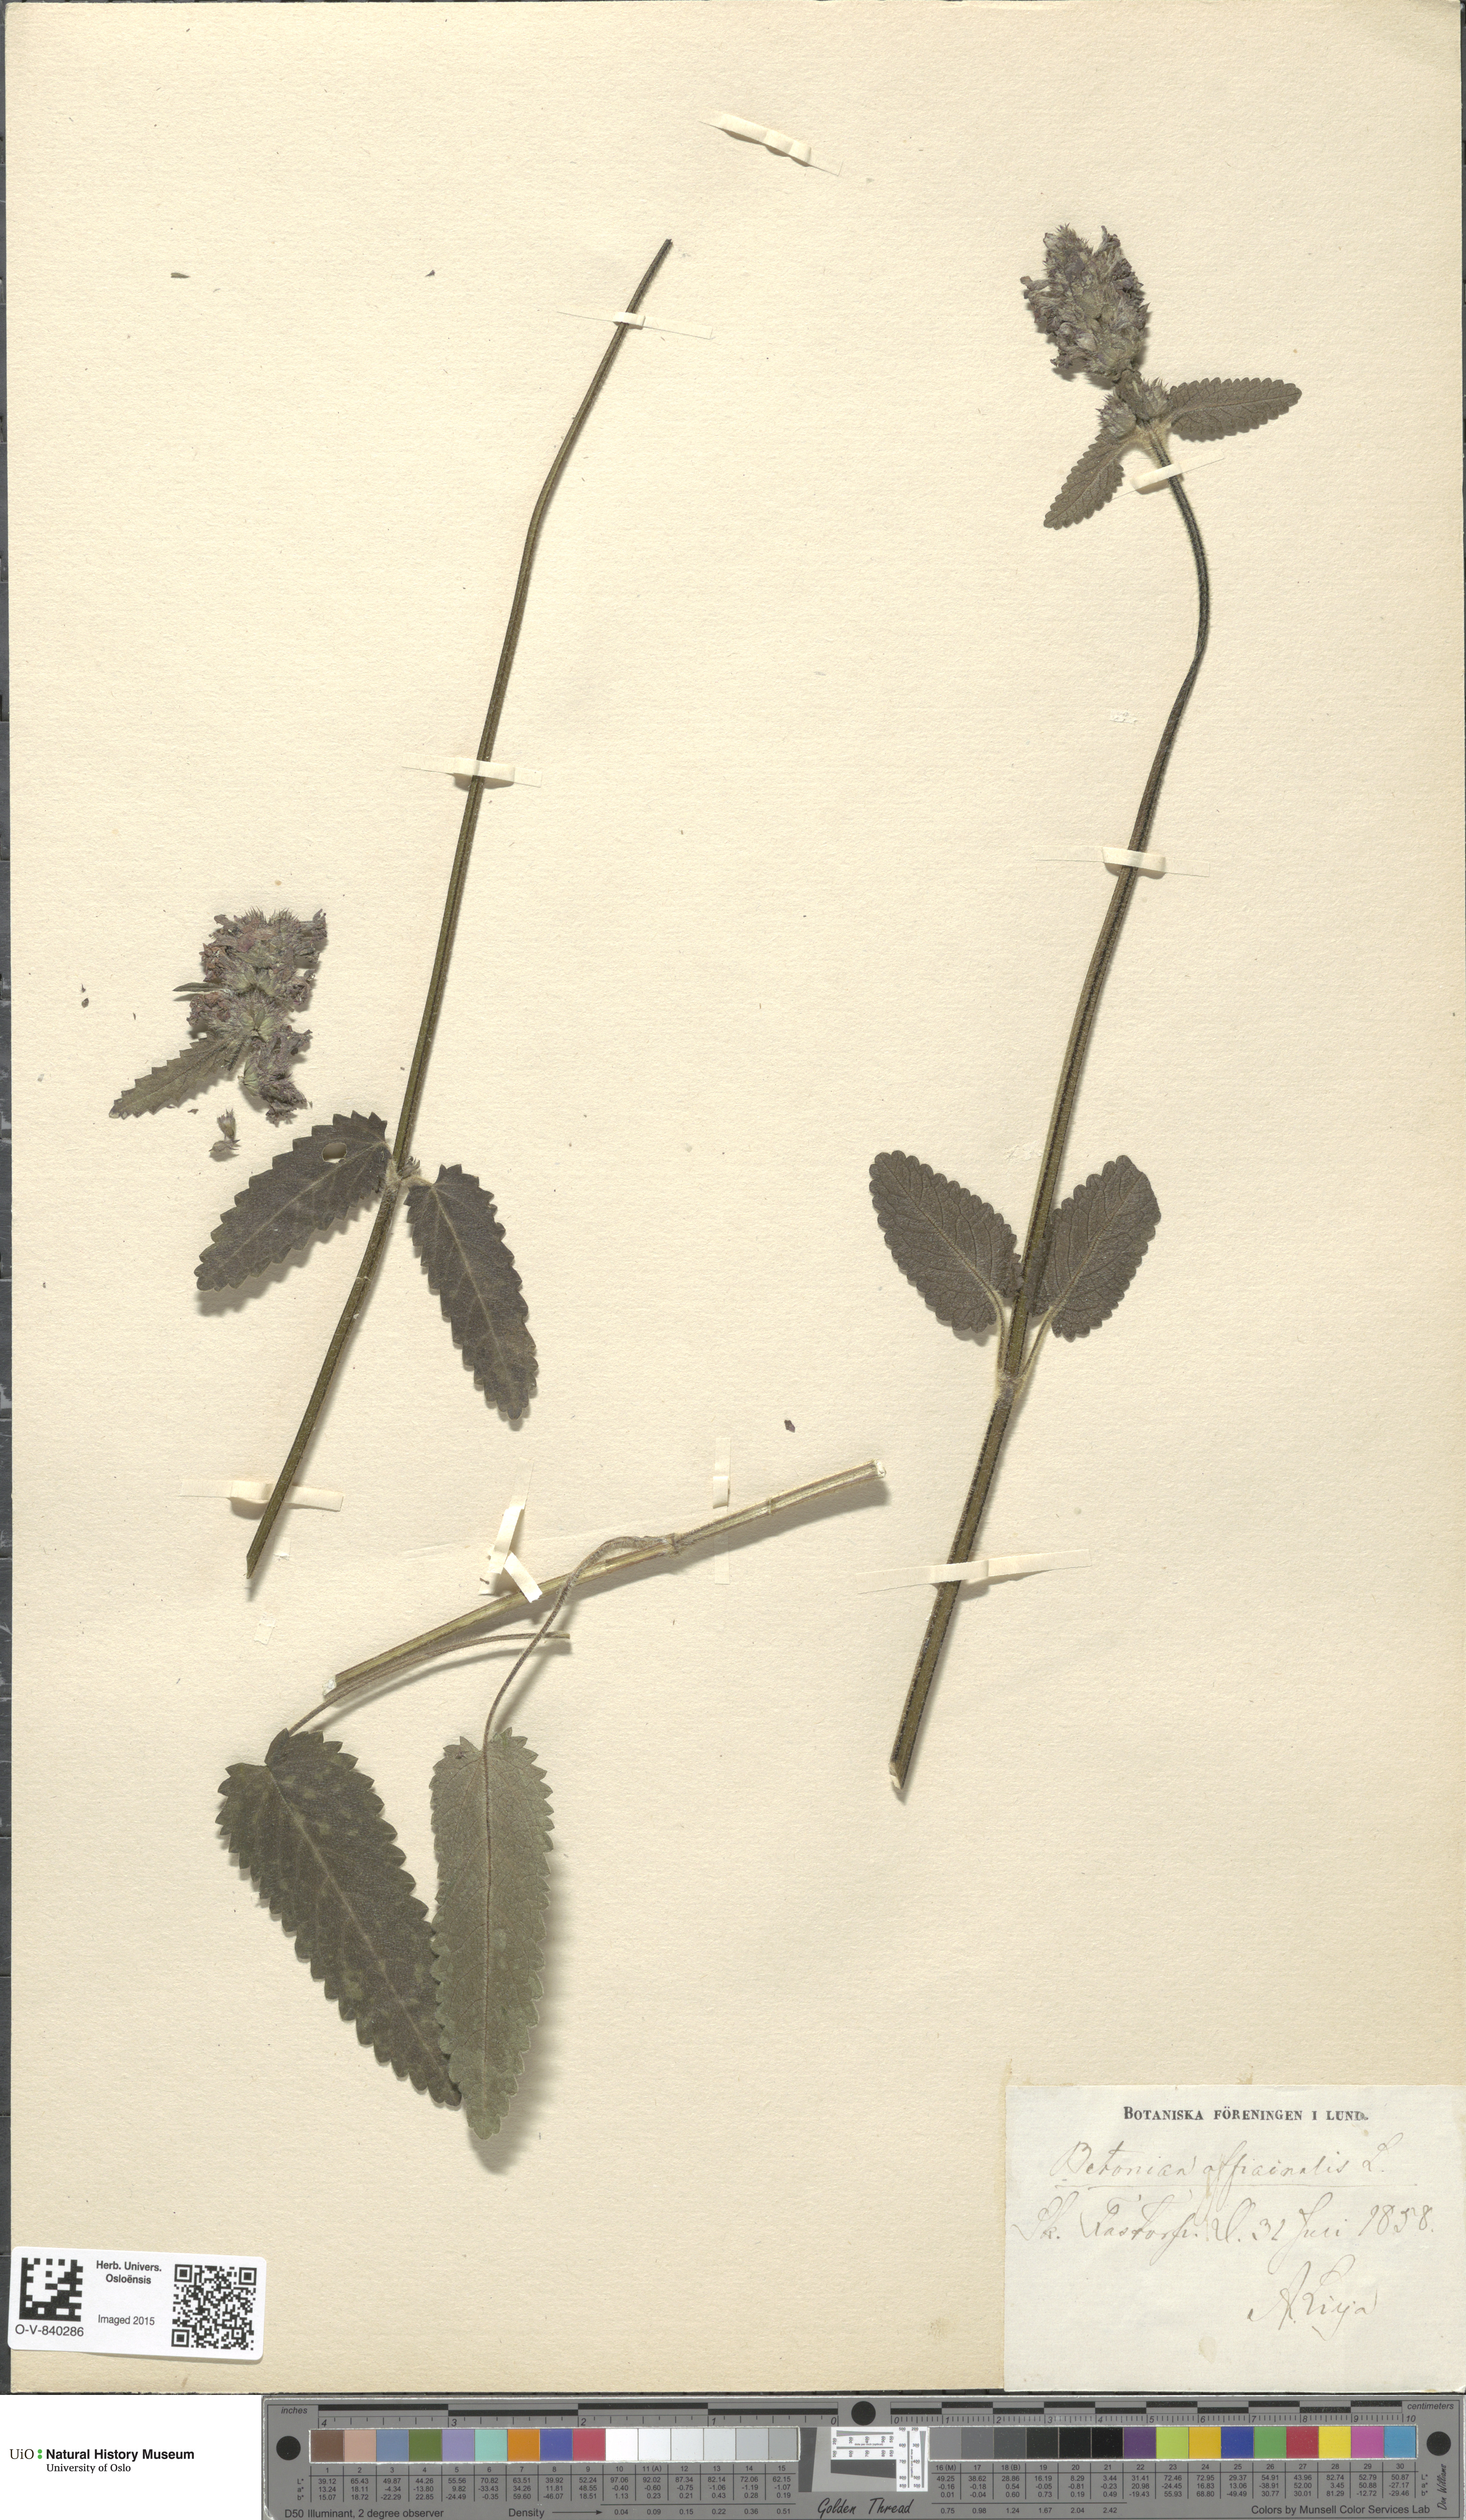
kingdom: Plantae
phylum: Tracheophyta
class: Magnoliopsida
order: Lamiales
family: Lamiaceae
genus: Betonica
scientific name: Betonica officinalis
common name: Bishop's-wort
